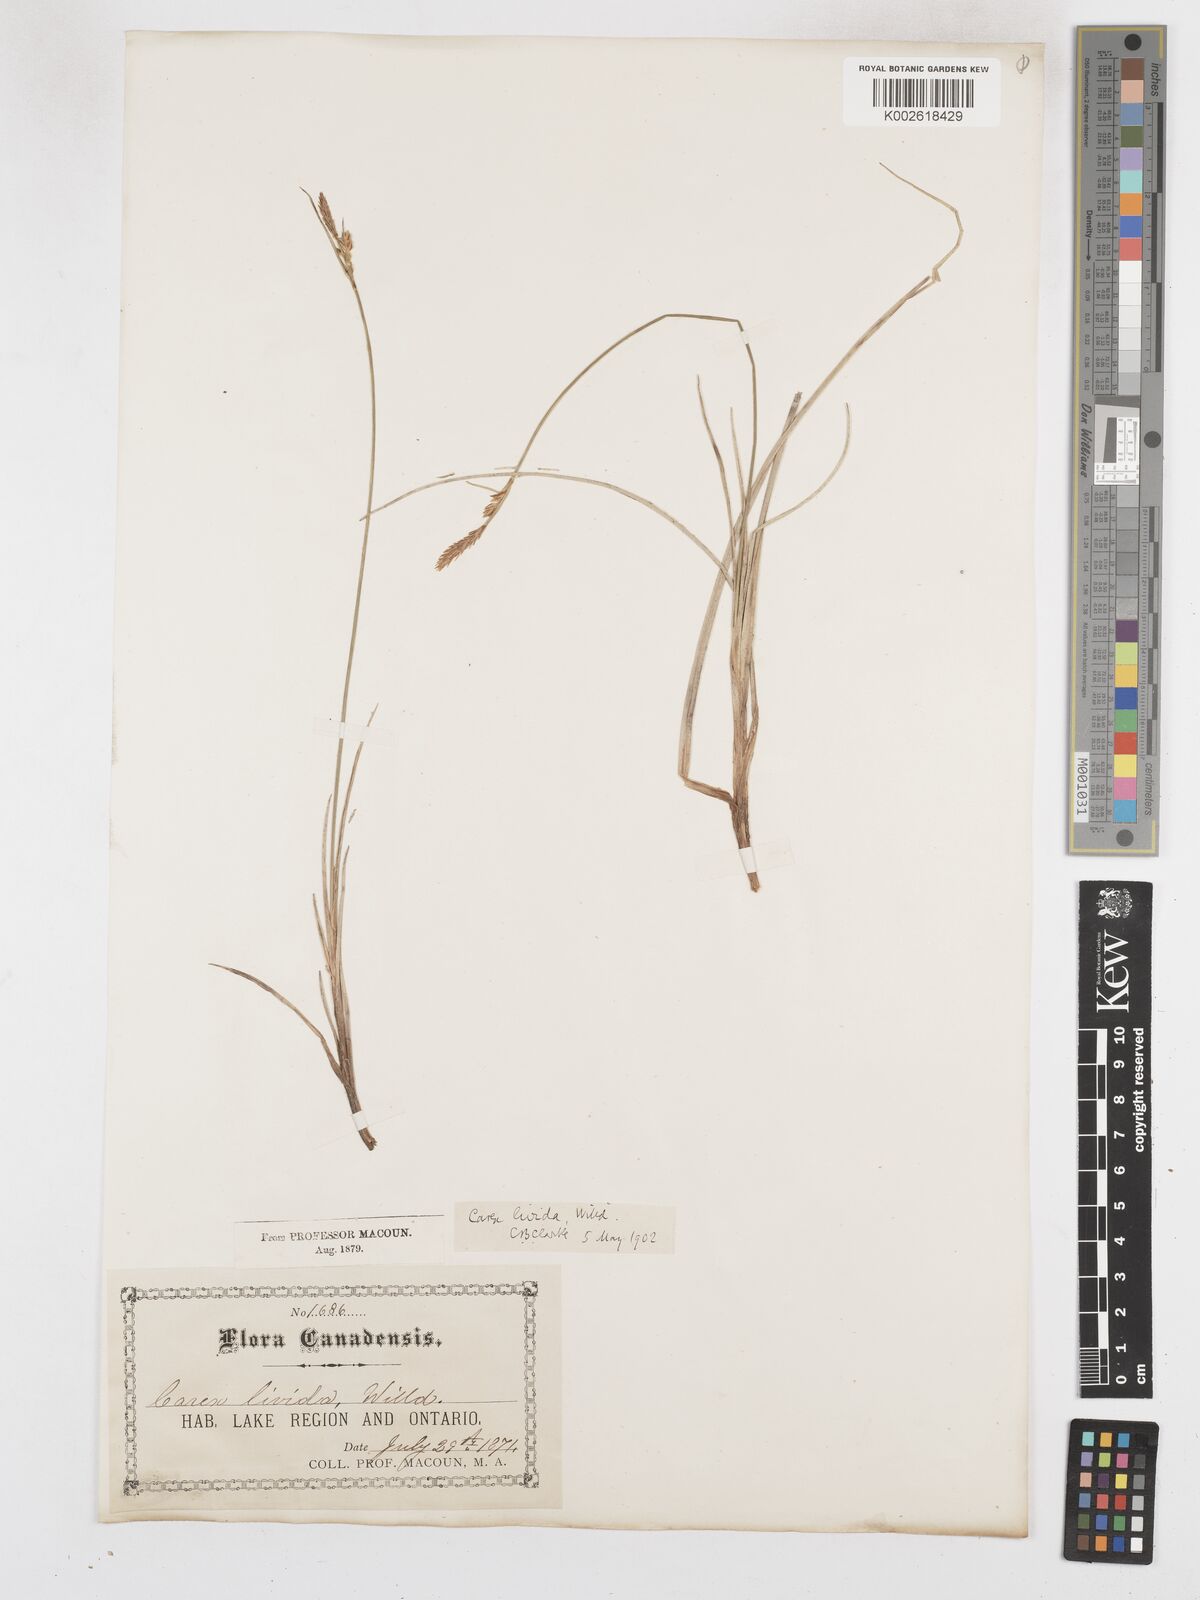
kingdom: Plantae
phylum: Tracheophyta
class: Liliopsida
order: Poales
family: Cyperaceae
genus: Carex
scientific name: Carex livida
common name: Livid sedge
